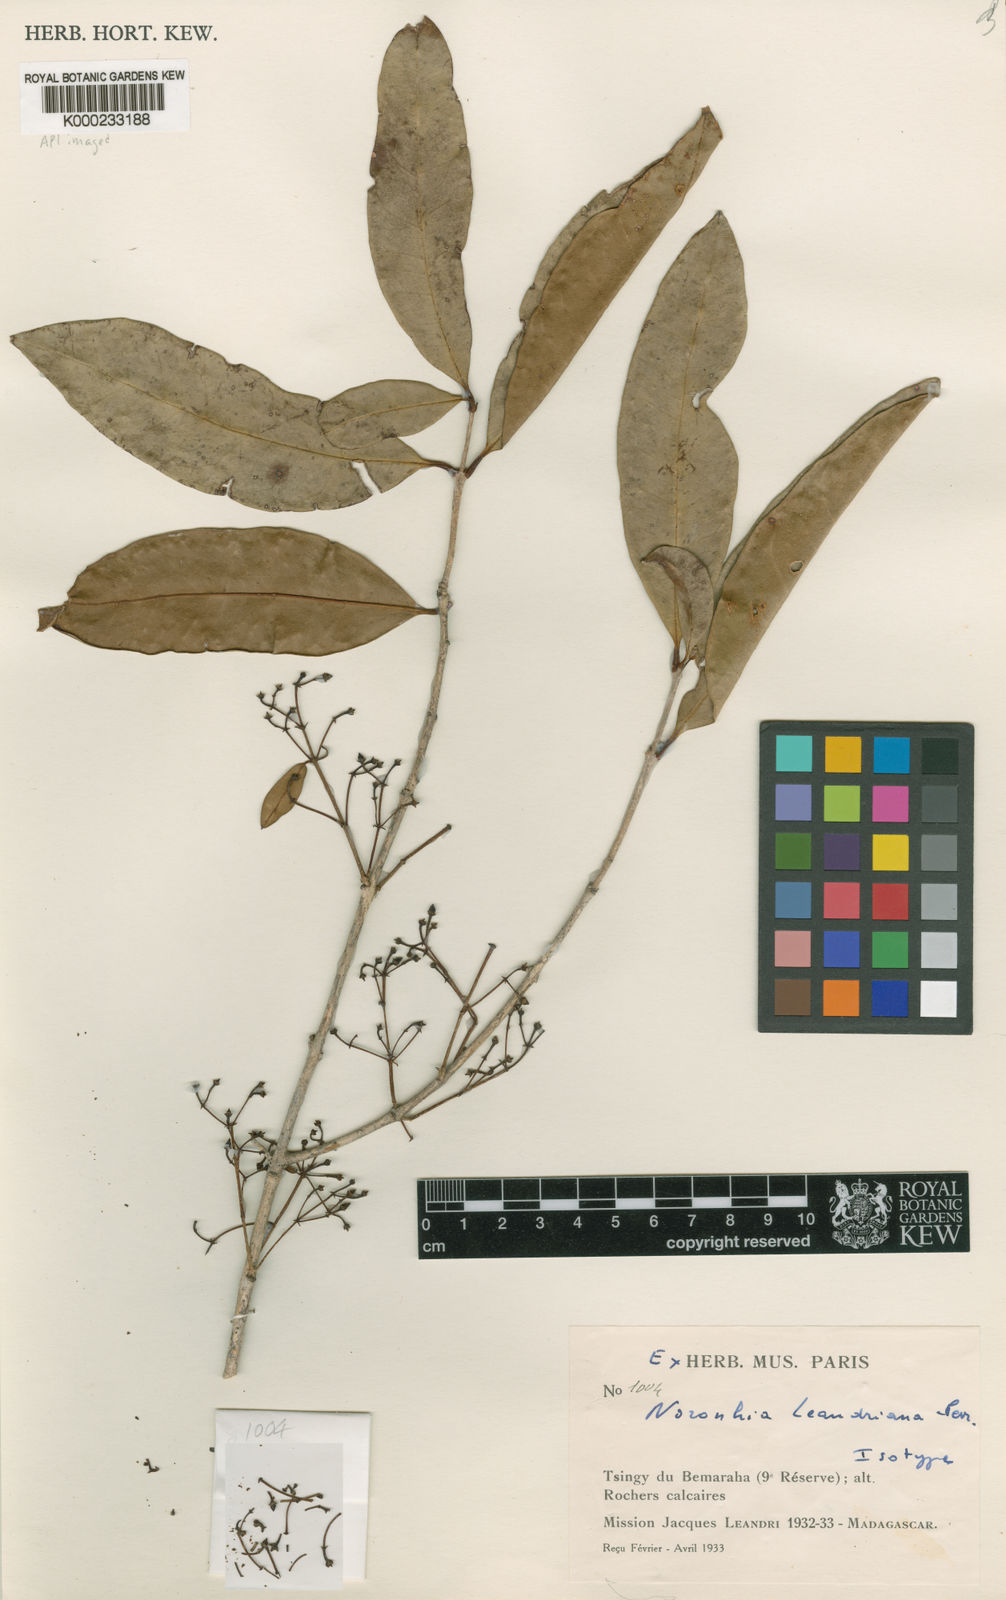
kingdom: Plantae
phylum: Tracheophyta
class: Magnoliopsida
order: Lamiales
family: Oleaceae
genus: Noronhia
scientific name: Noronhia leandriana
